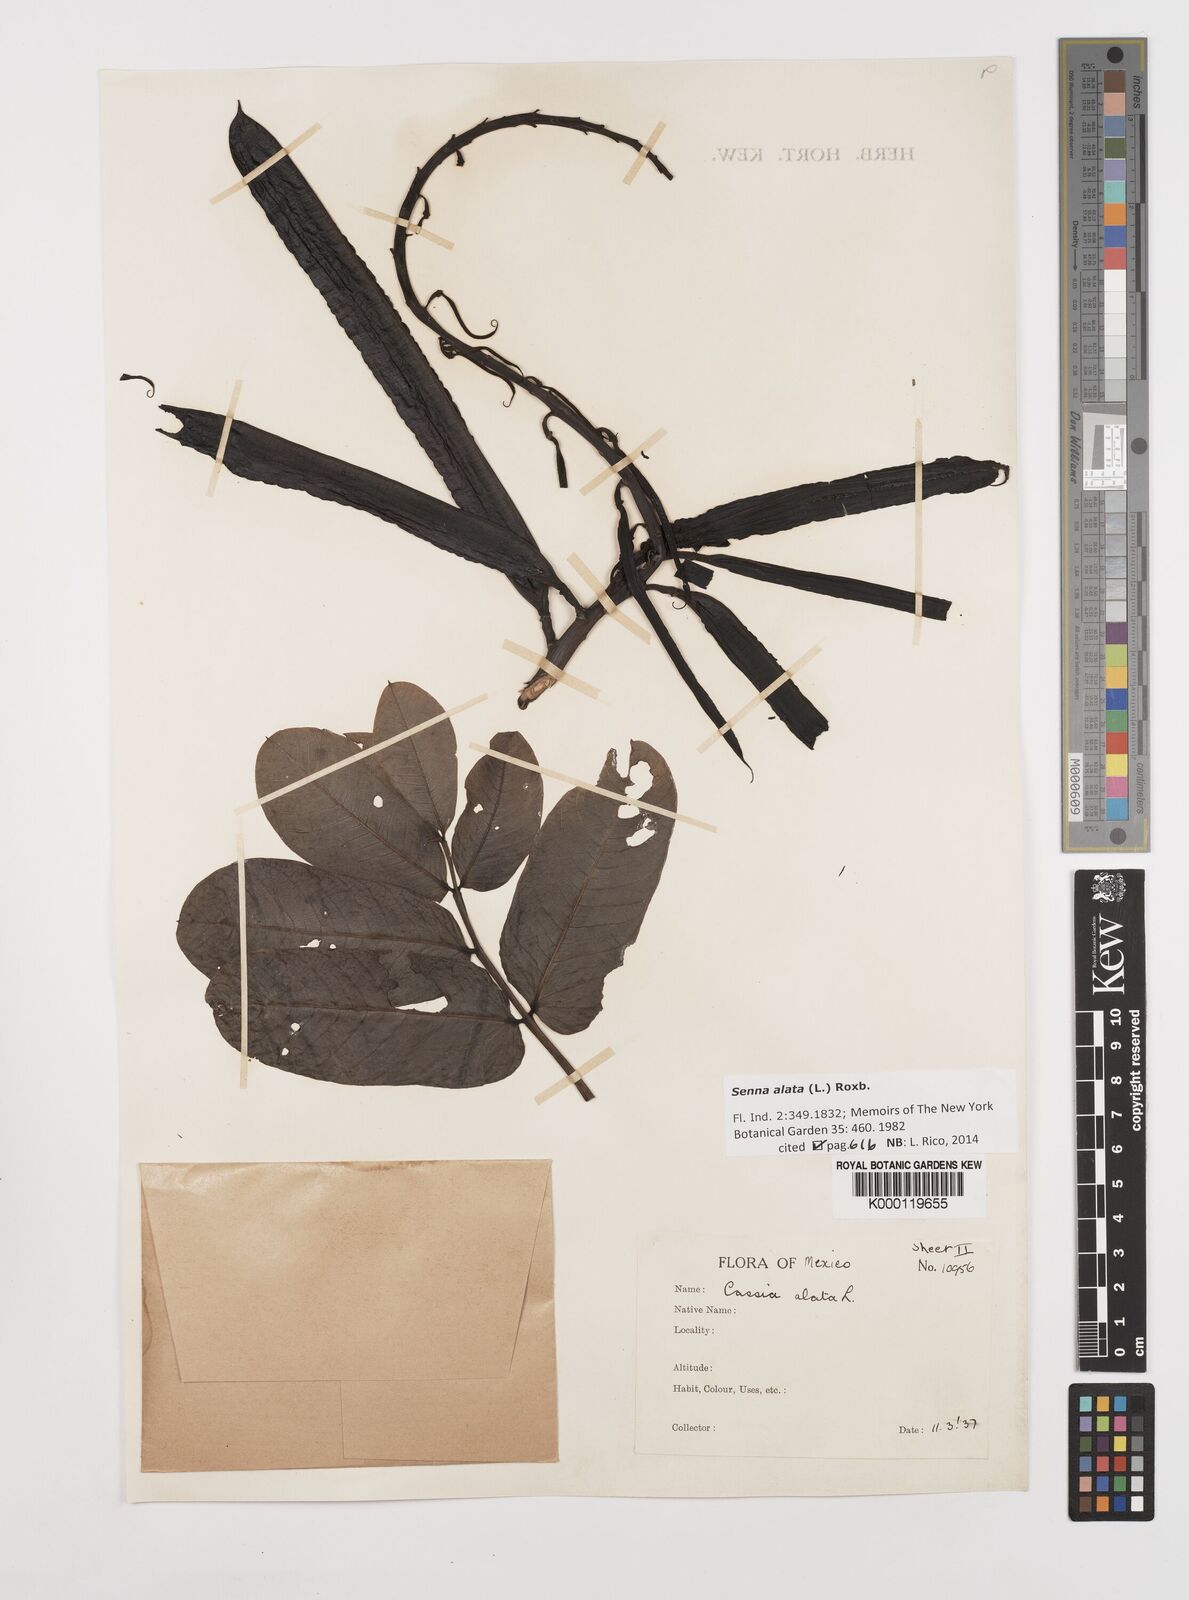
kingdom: Plantae
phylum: Tracheophyta
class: Magnoliopsida
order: Fabales
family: Fabaceae
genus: Senna
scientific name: Senna alata
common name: Emperor's candlesticks
